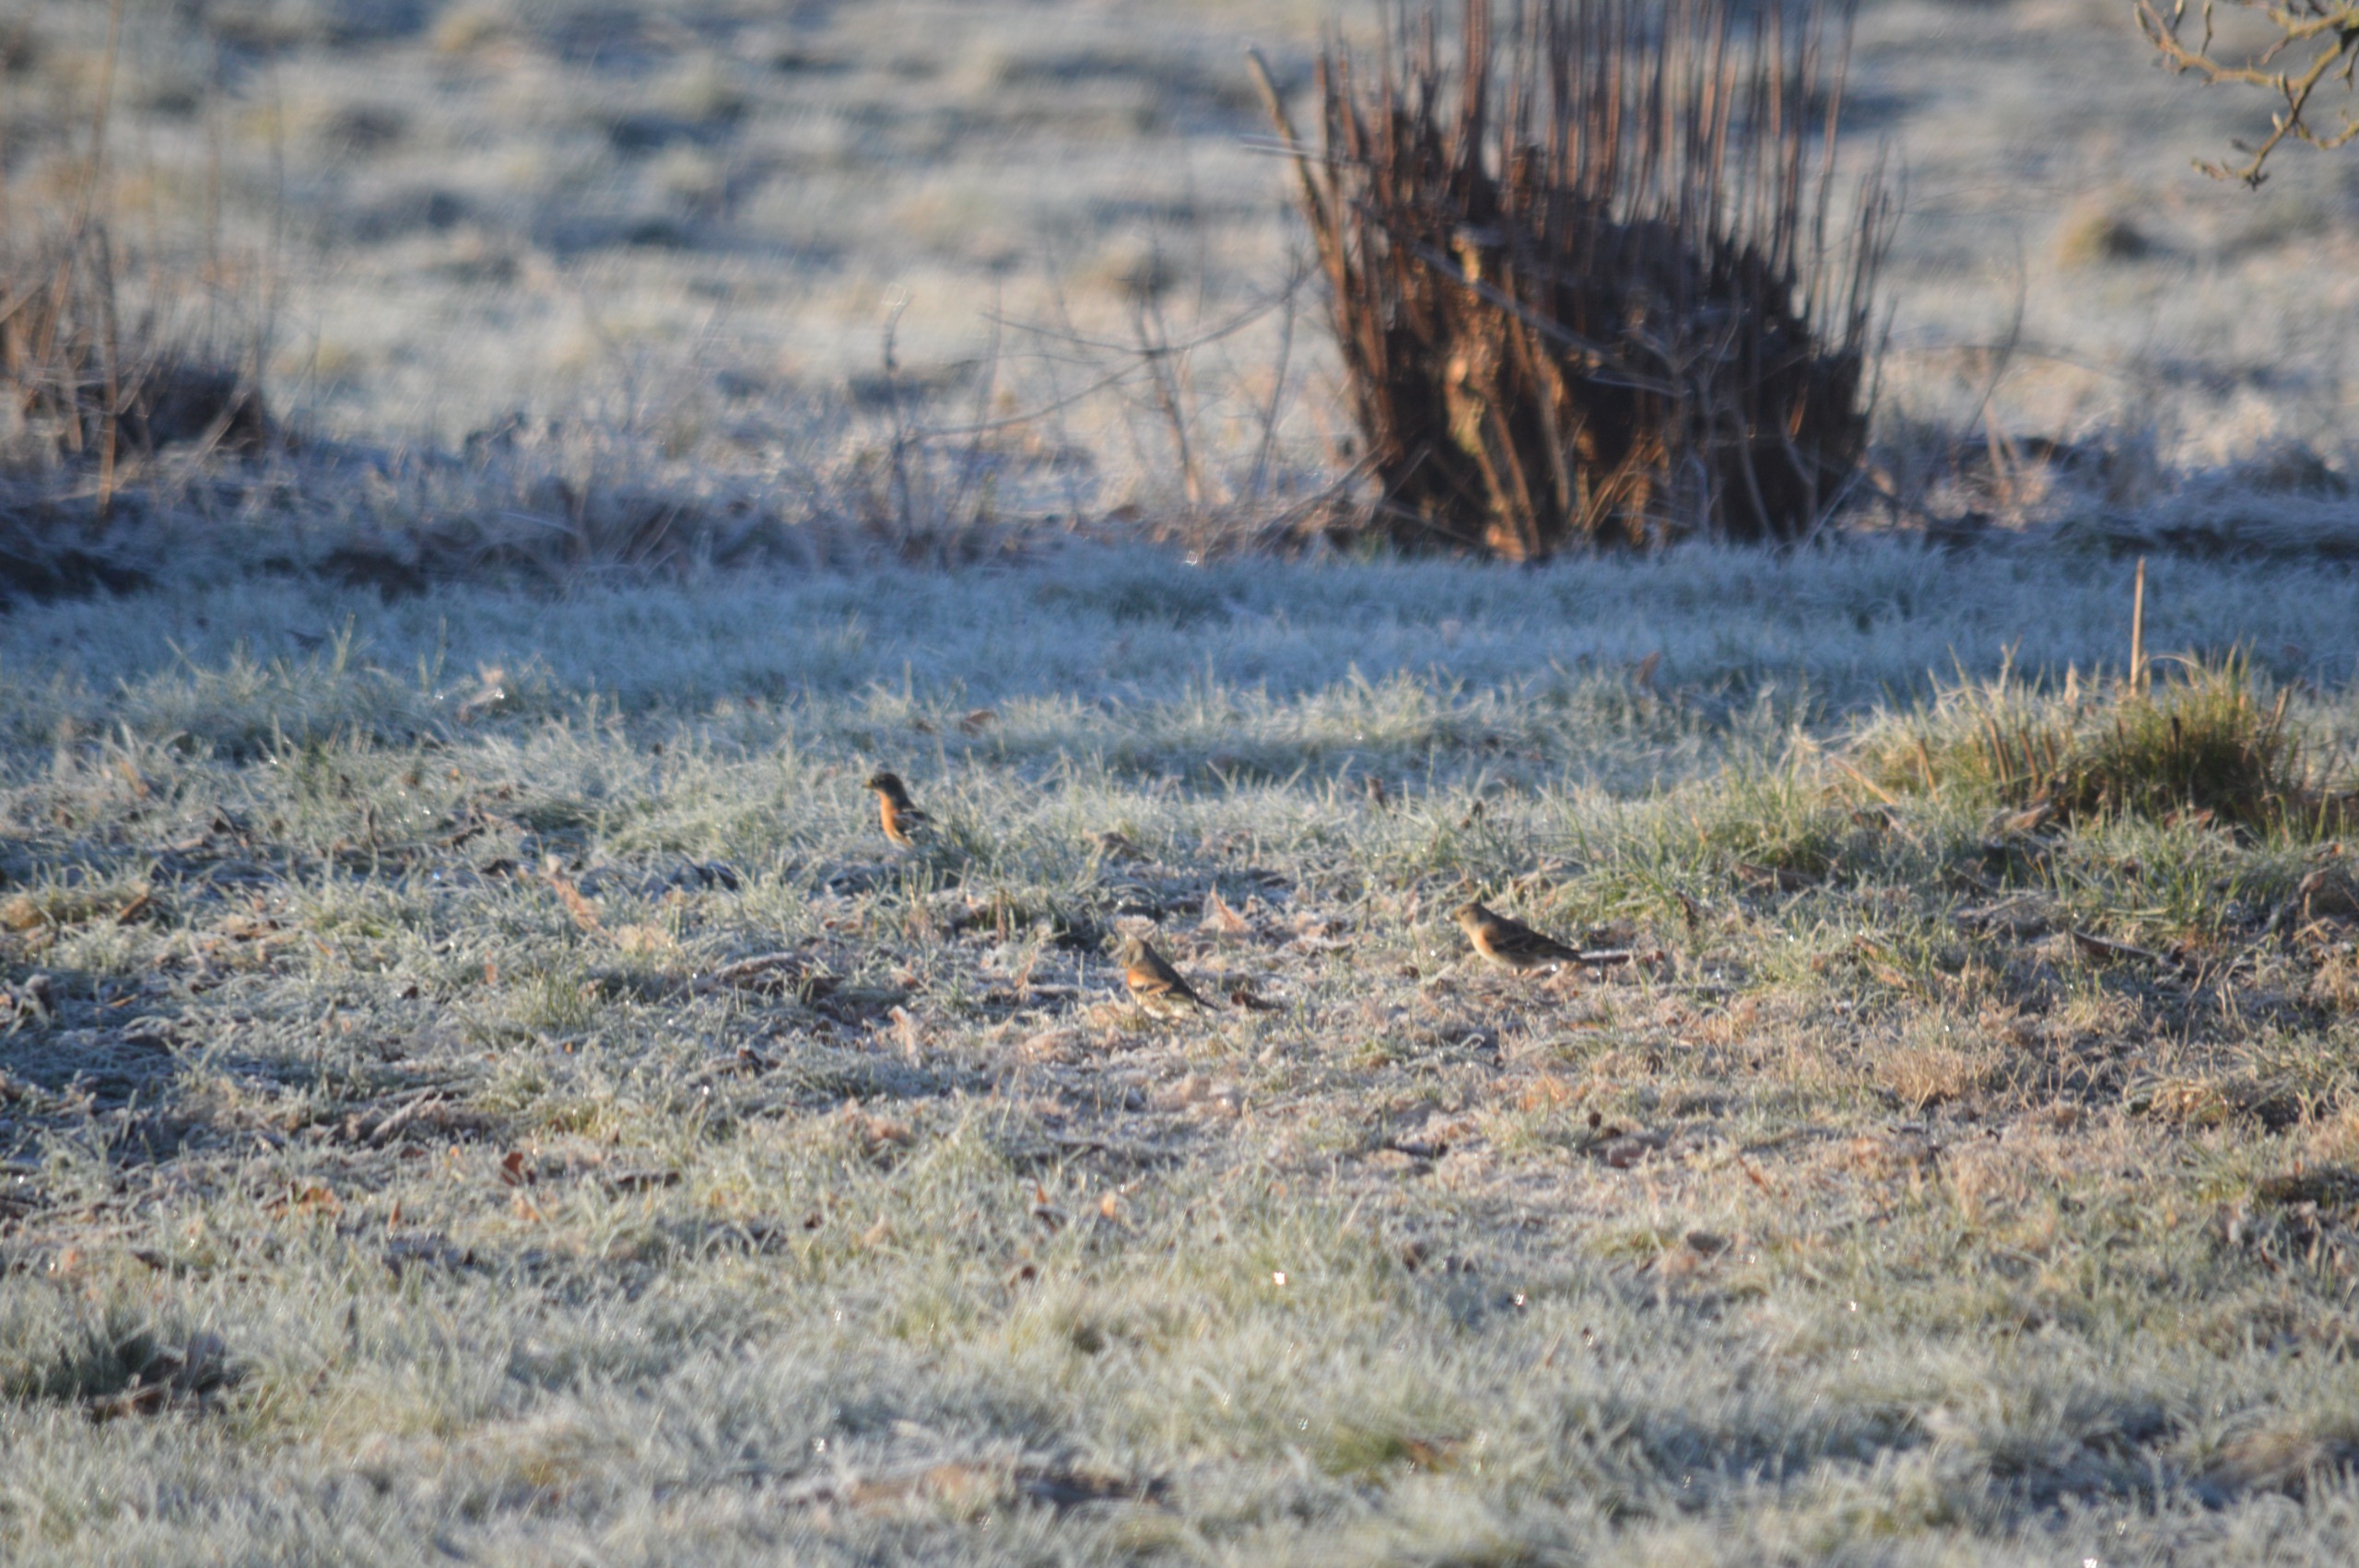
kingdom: Animalia
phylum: Chordata
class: Aves
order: Passeriformes
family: Fringillidae
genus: Fringilla
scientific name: Fringilla montifringilla
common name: Kvækerfinke
